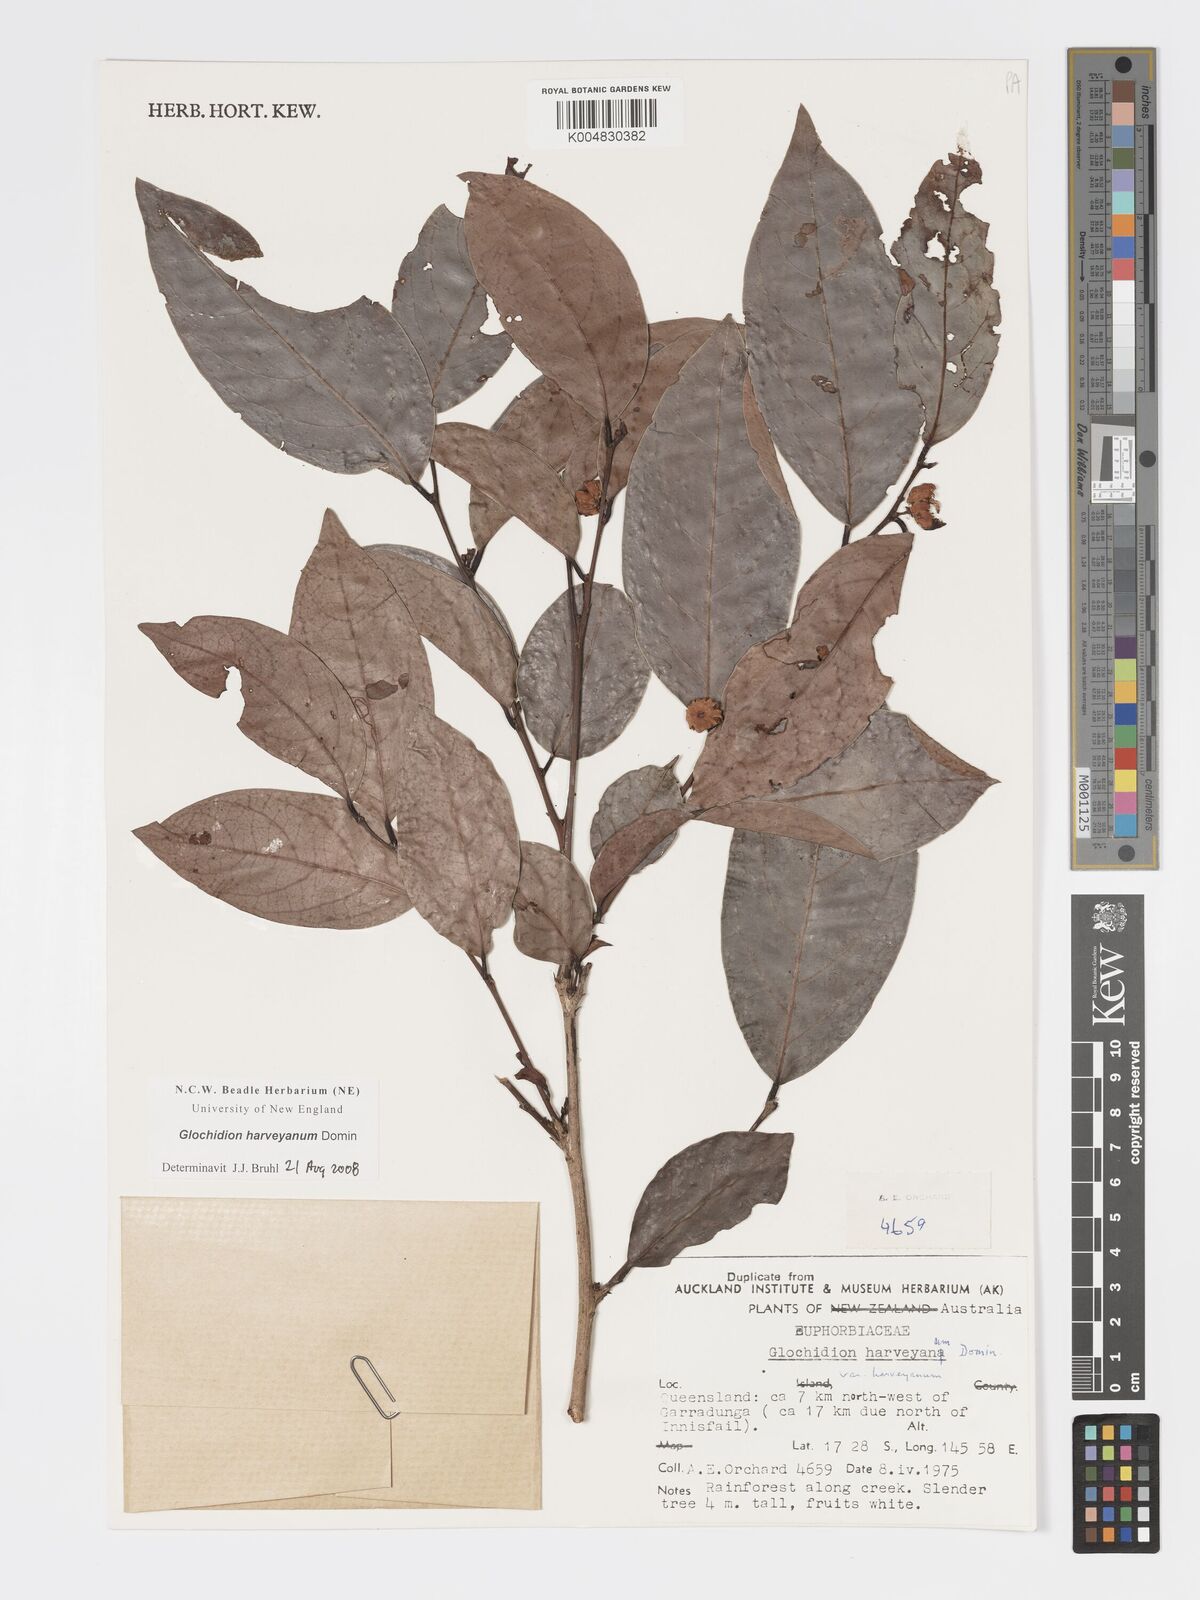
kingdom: Plantae
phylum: Tracheophyta
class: Magnoliopsida
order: Malpighiales
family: Phyllanthaceae
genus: Glochidion
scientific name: Glochidion harveyanum
